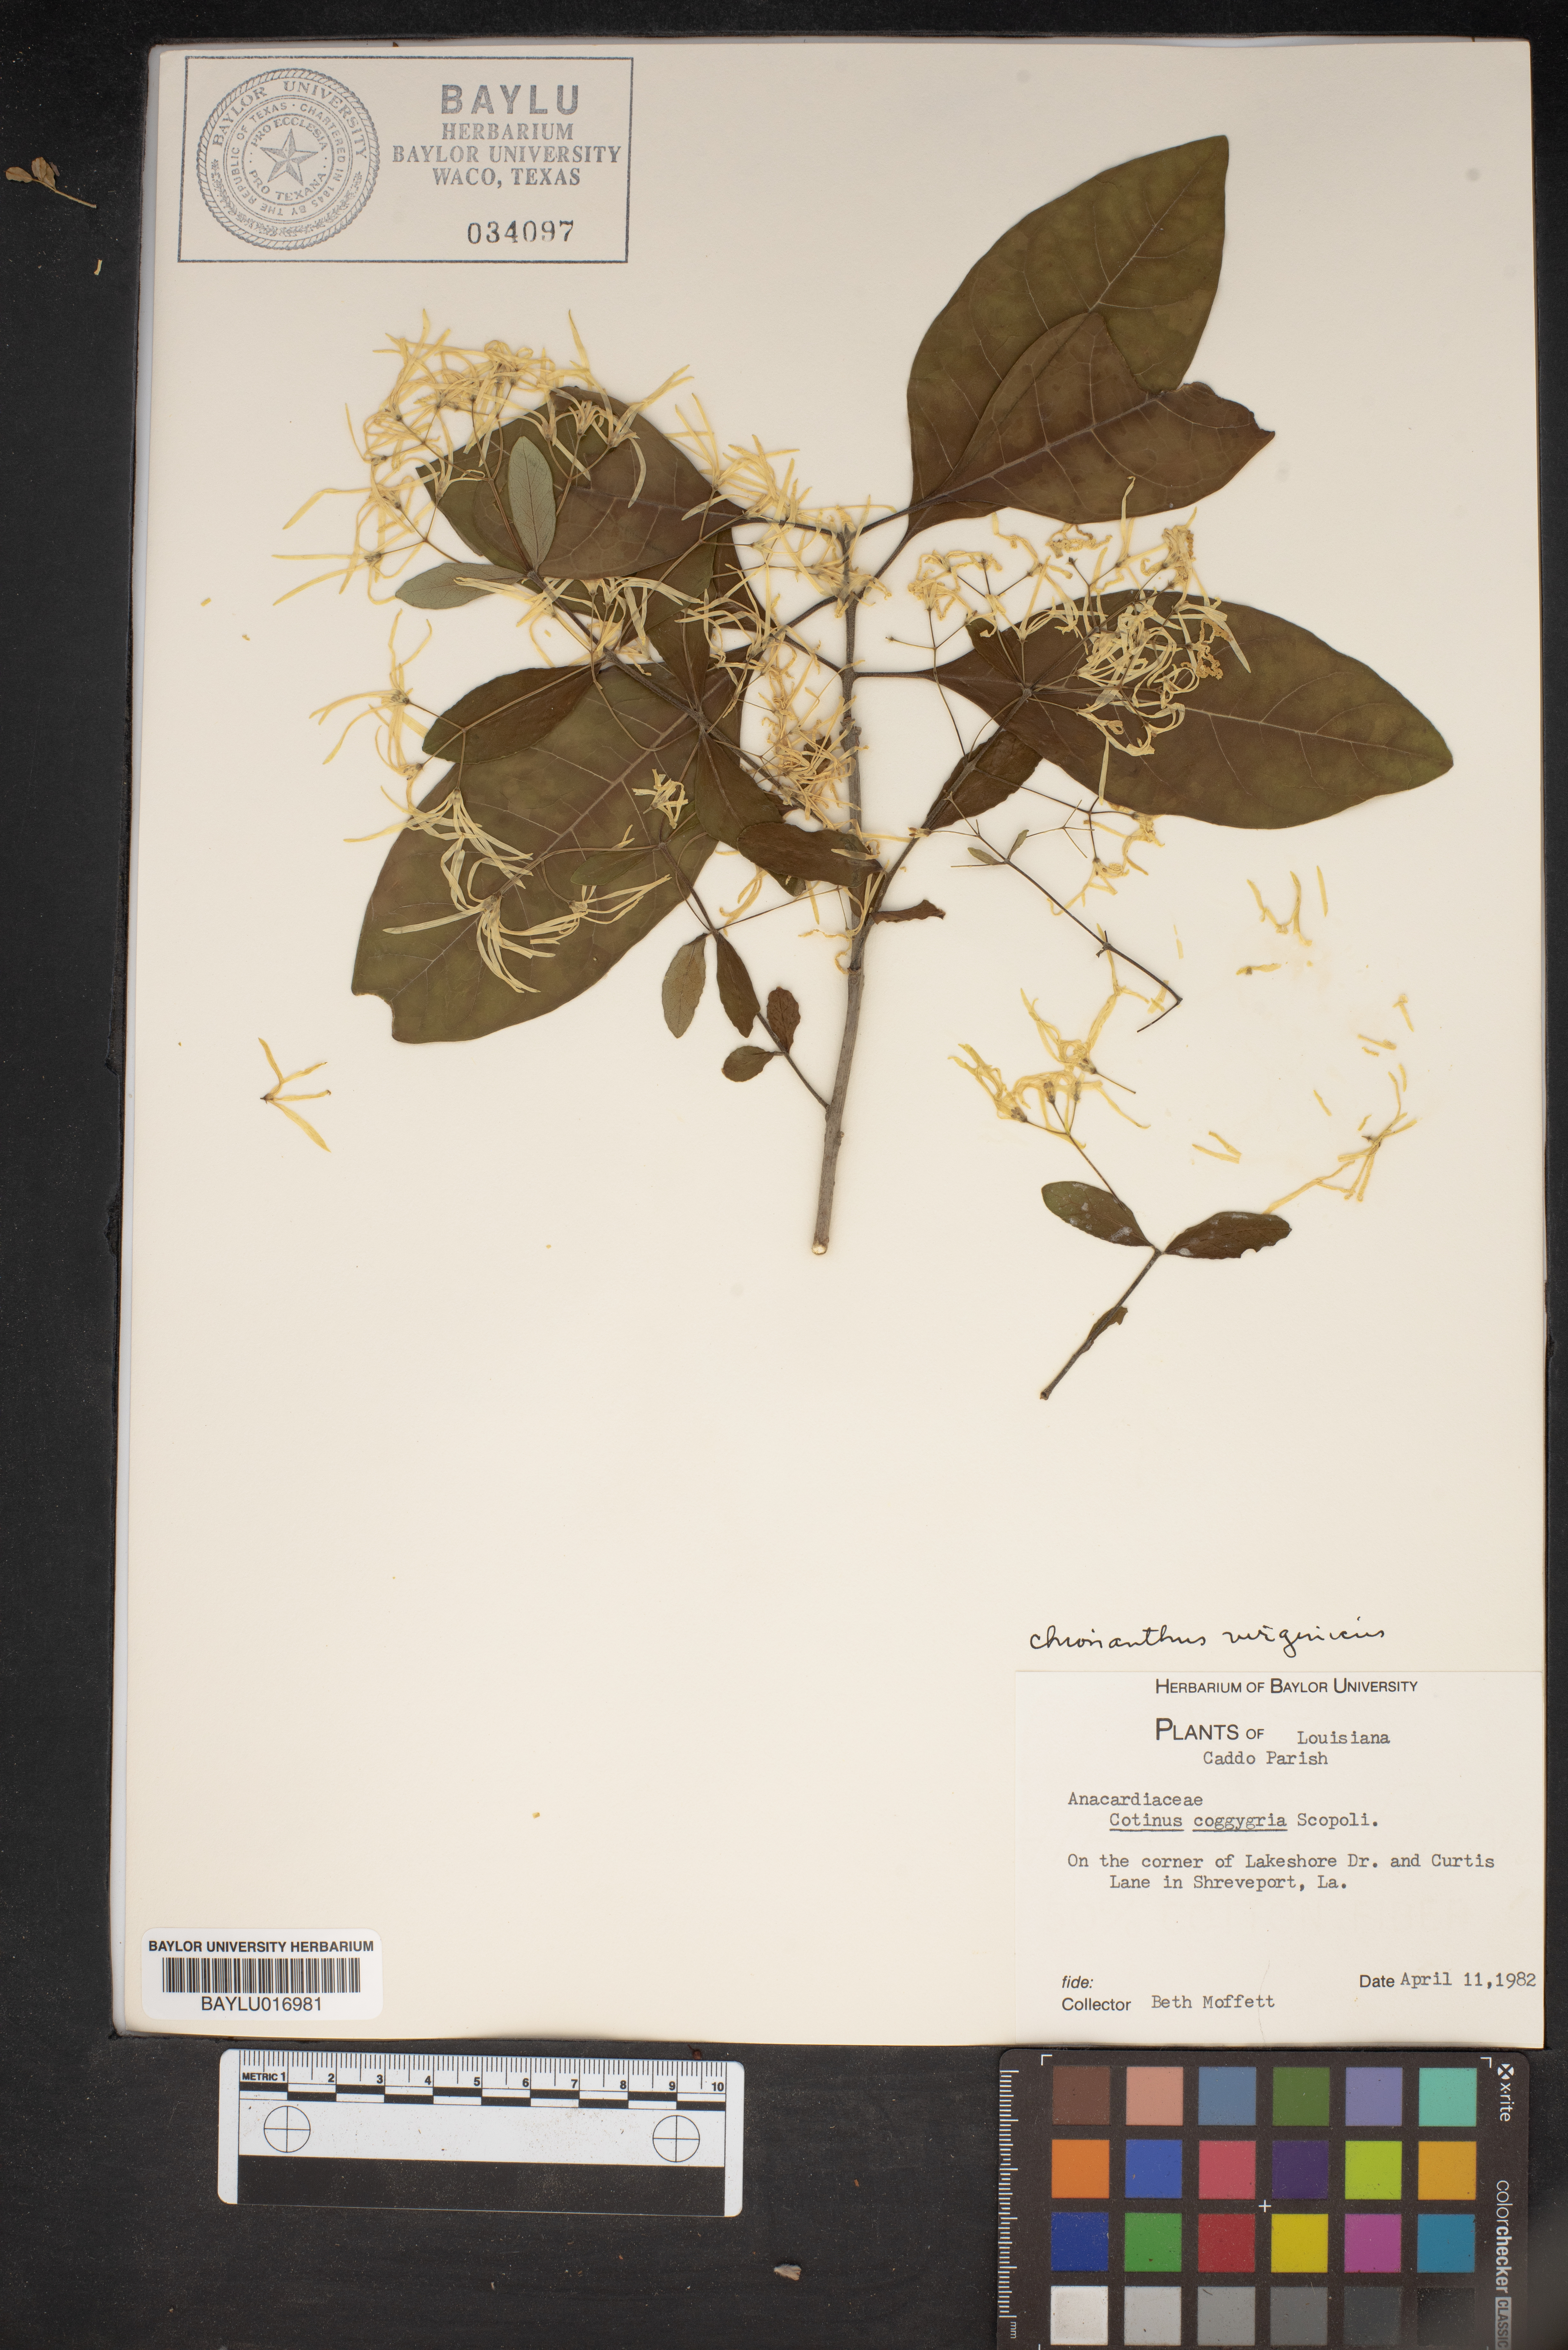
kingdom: Plantae
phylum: Tracheophyta
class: Magnoliopsida
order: Sapindales
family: Anacardiaceae
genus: Cotinus
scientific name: Cotinus coggygria
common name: Smoke-tree
